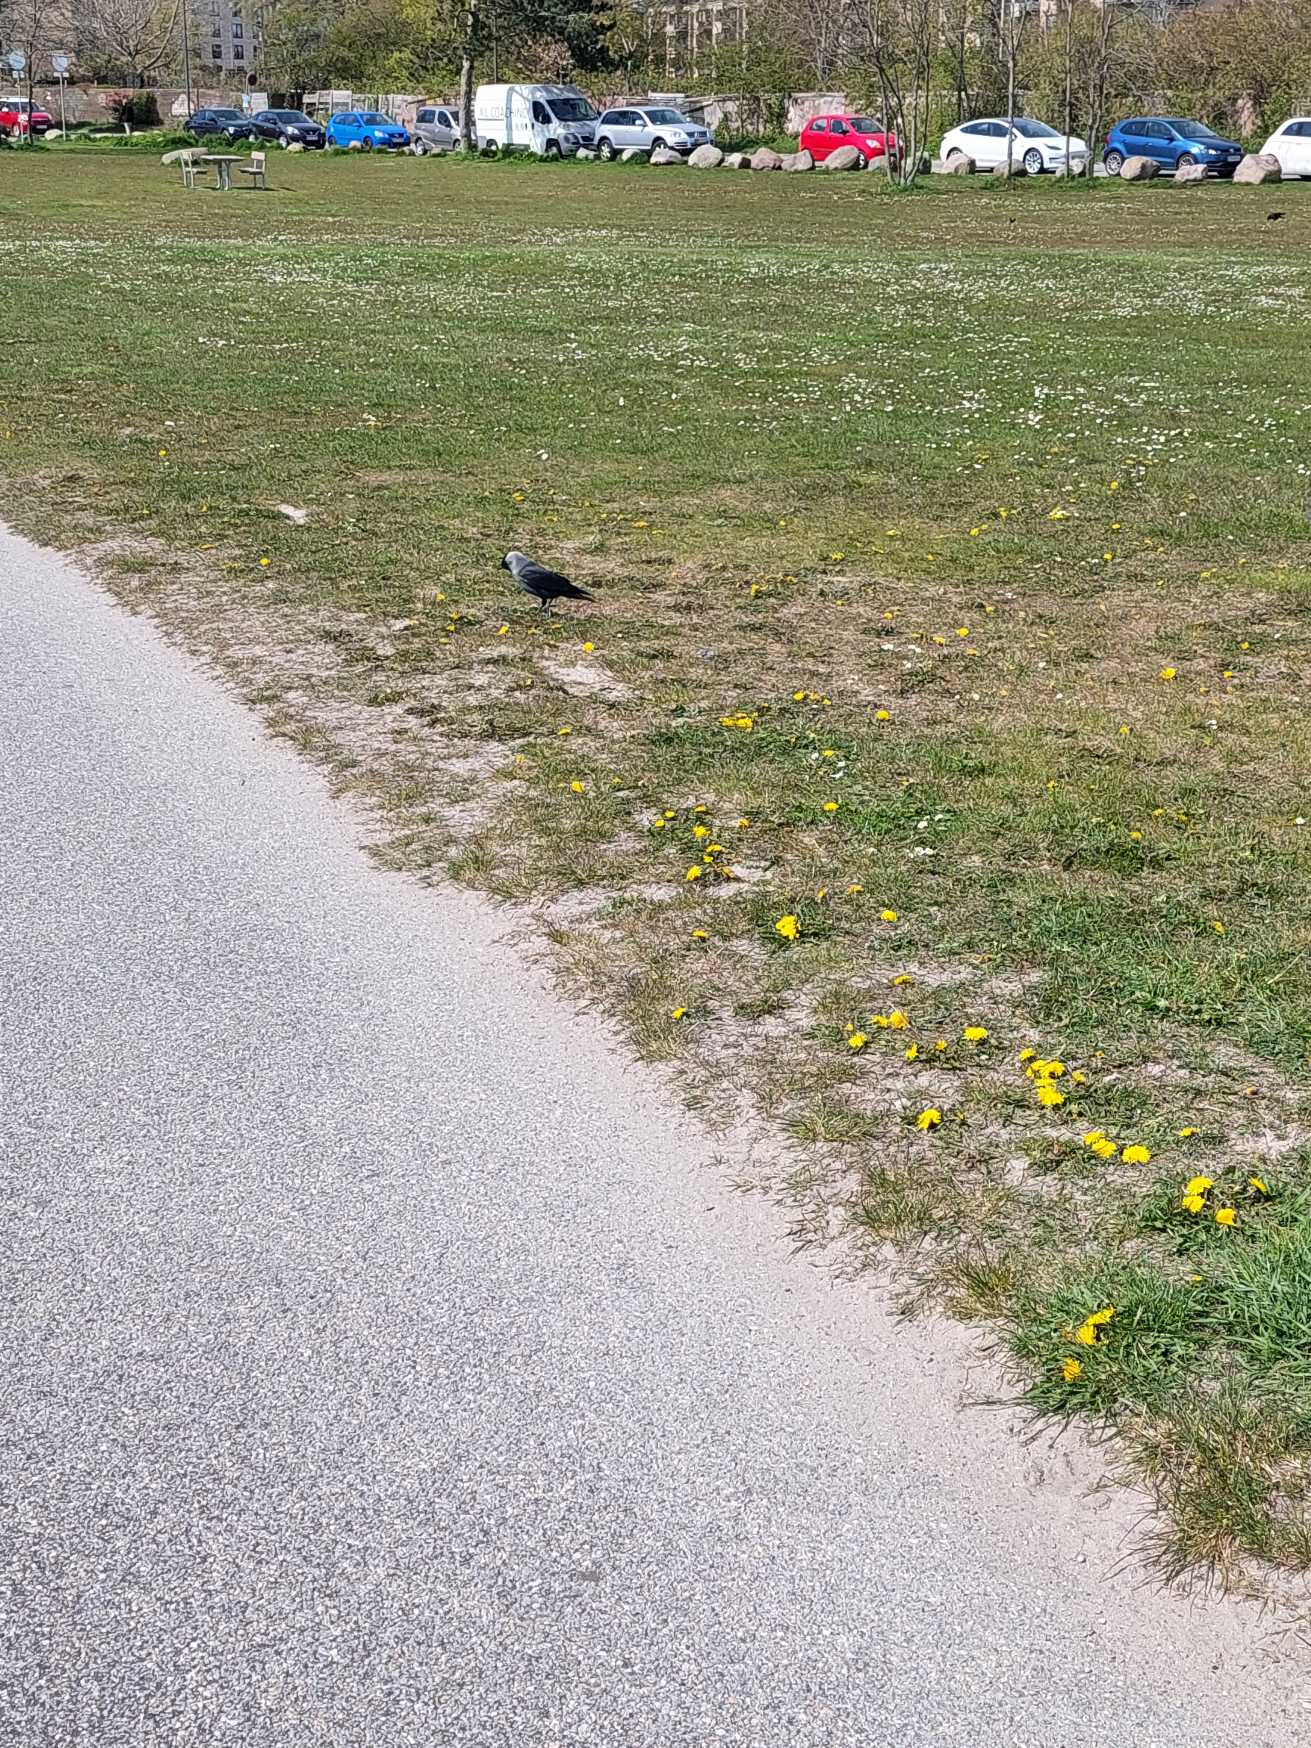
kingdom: Animalia
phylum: Chordata
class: Aves
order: Passeriformes
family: Corvidae
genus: Coloeus
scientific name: Coloeus monedula
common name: Allike
